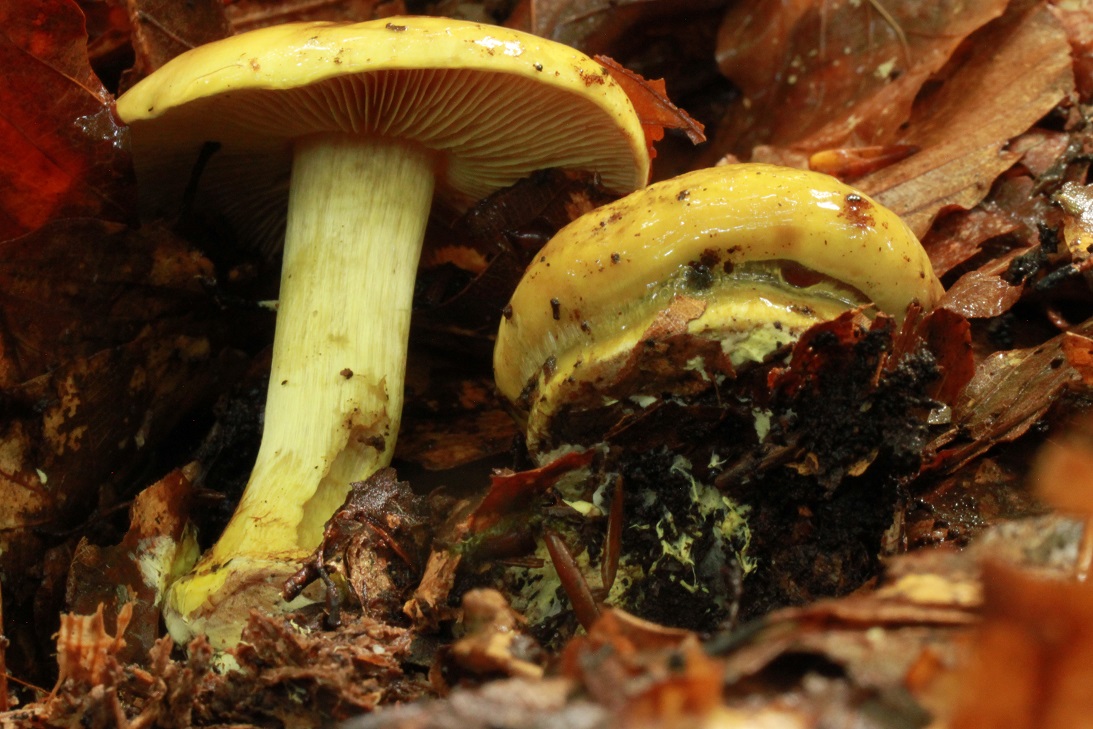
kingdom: Fungi
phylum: Basidiomycota
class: Agaricomycetes
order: Agaricales
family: Cortinariaceae
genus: Calonarius
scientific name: Calonarius citrinus
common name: citrongul slørhat
